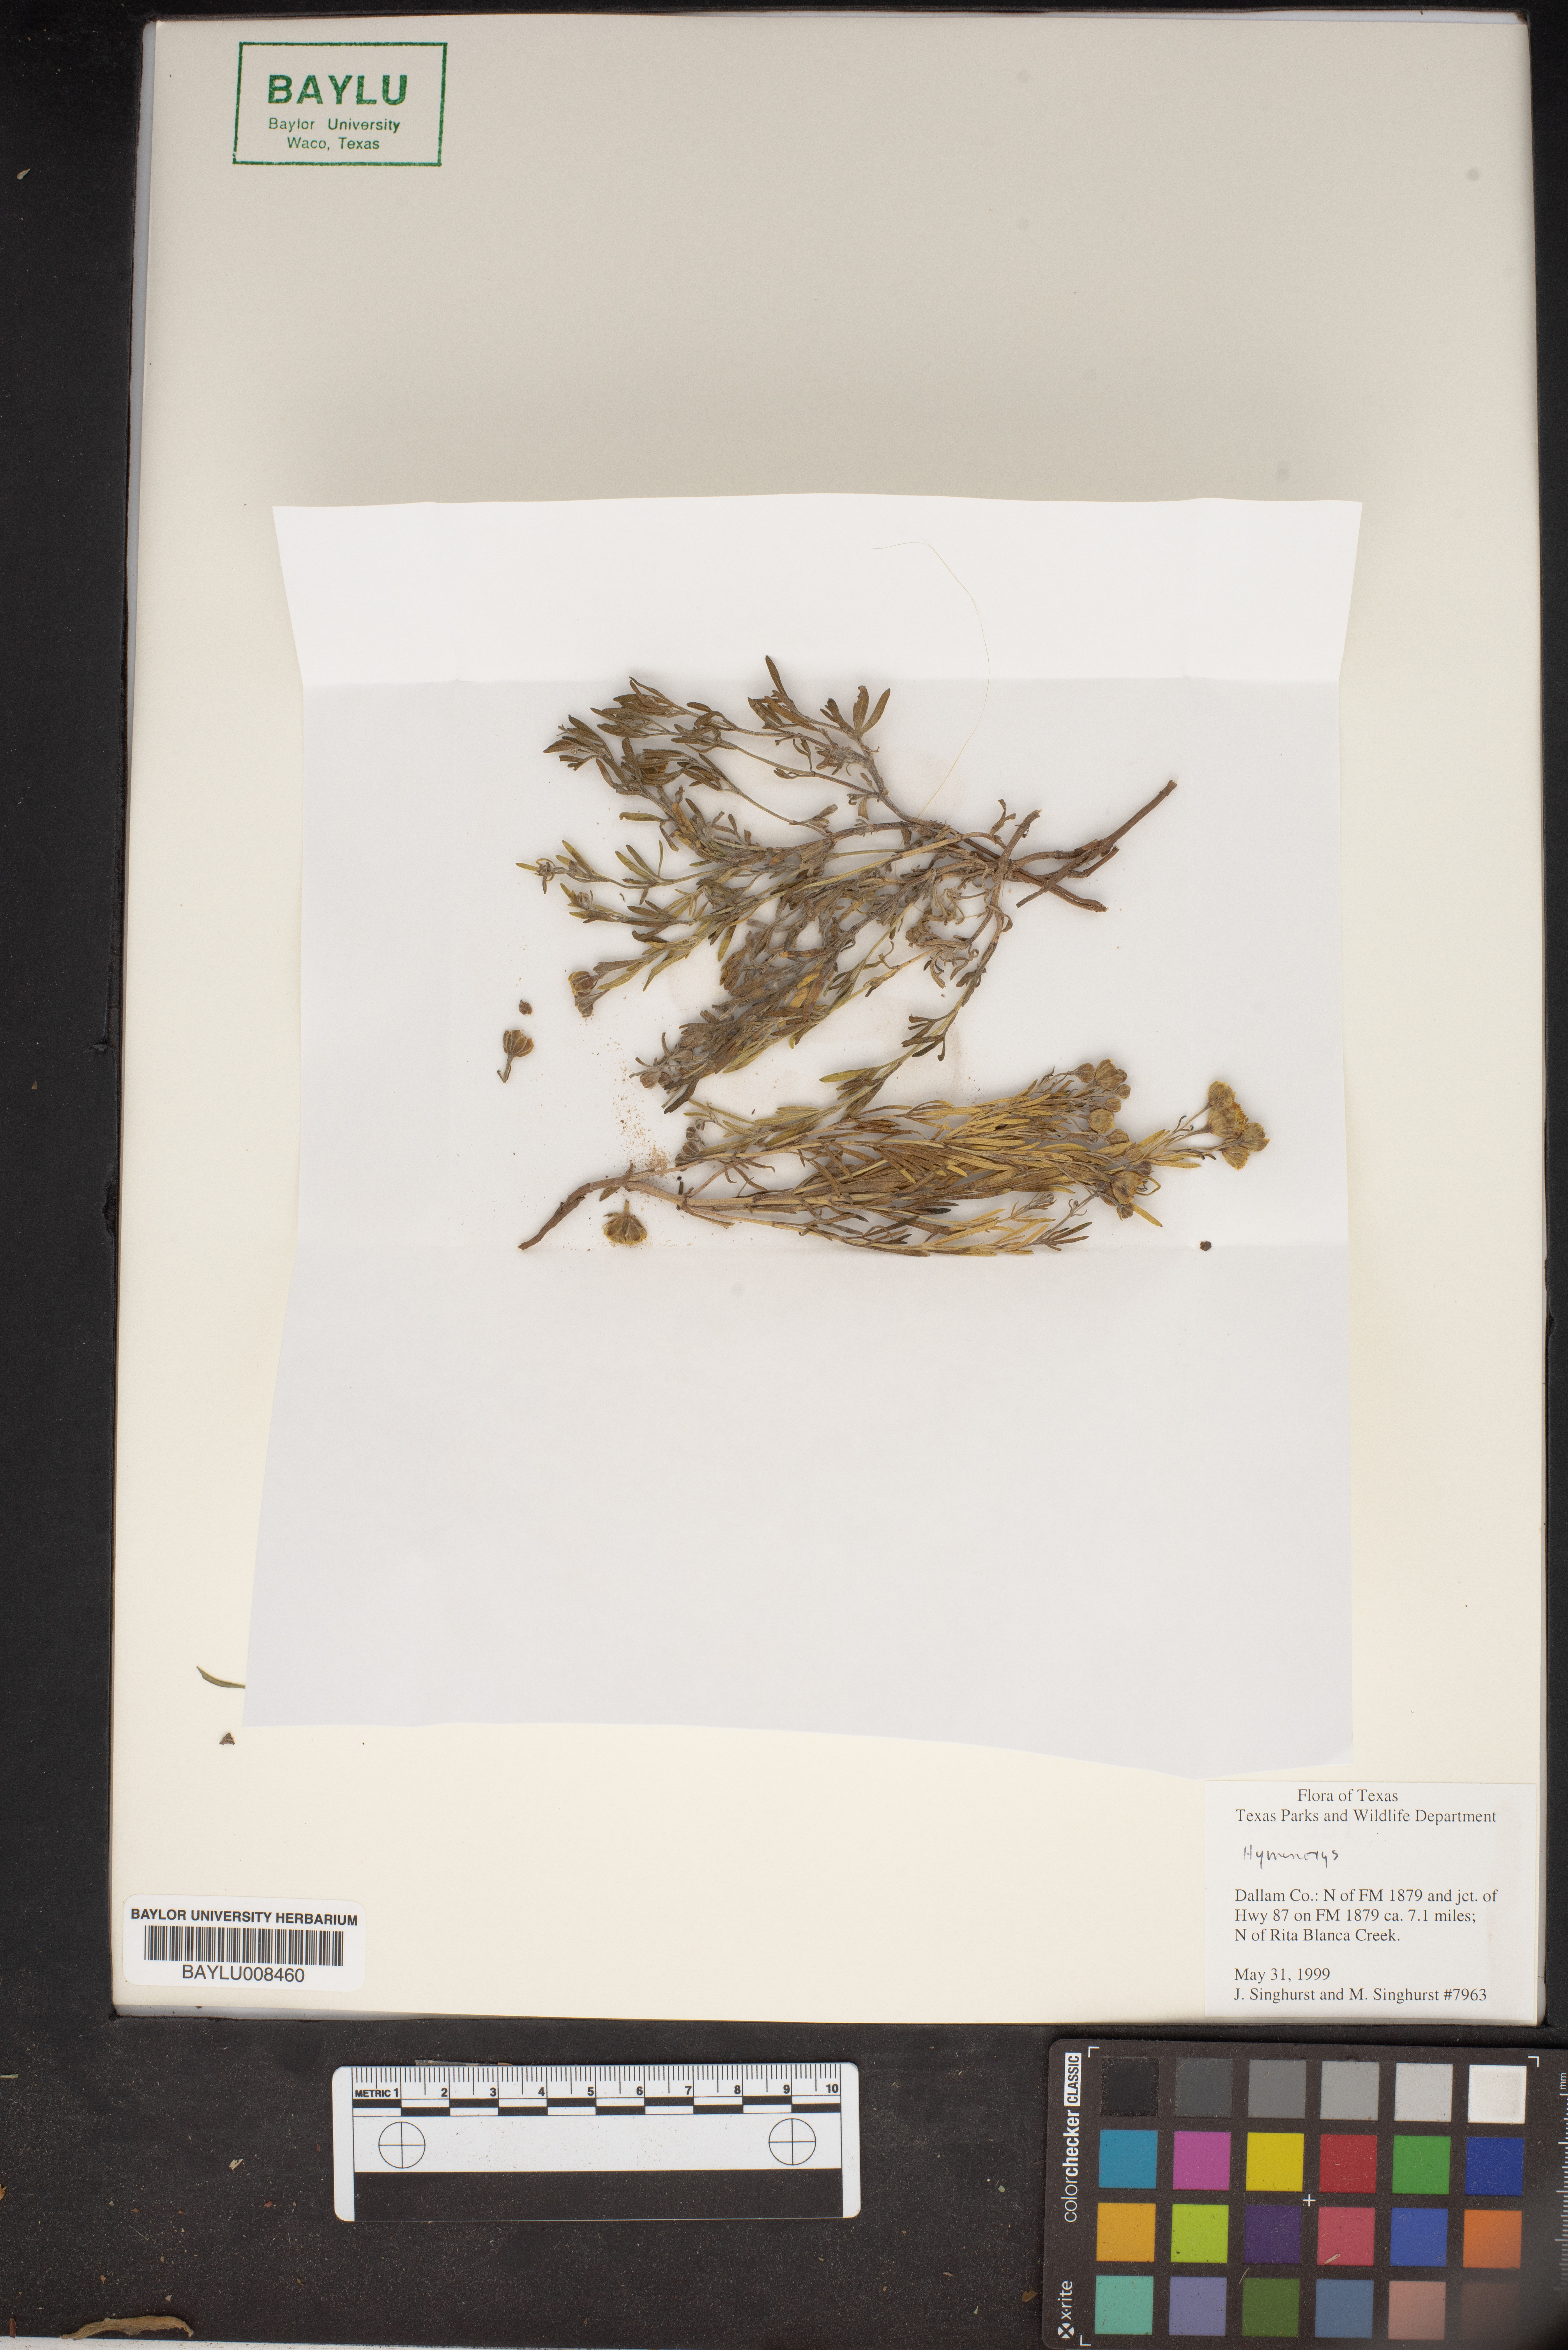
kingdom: Plantae
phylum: Tracheophyta
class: Magnoliopsida
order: Asterales
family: Asteraceae
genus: Hymenoxys
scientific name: Hymenoxys
